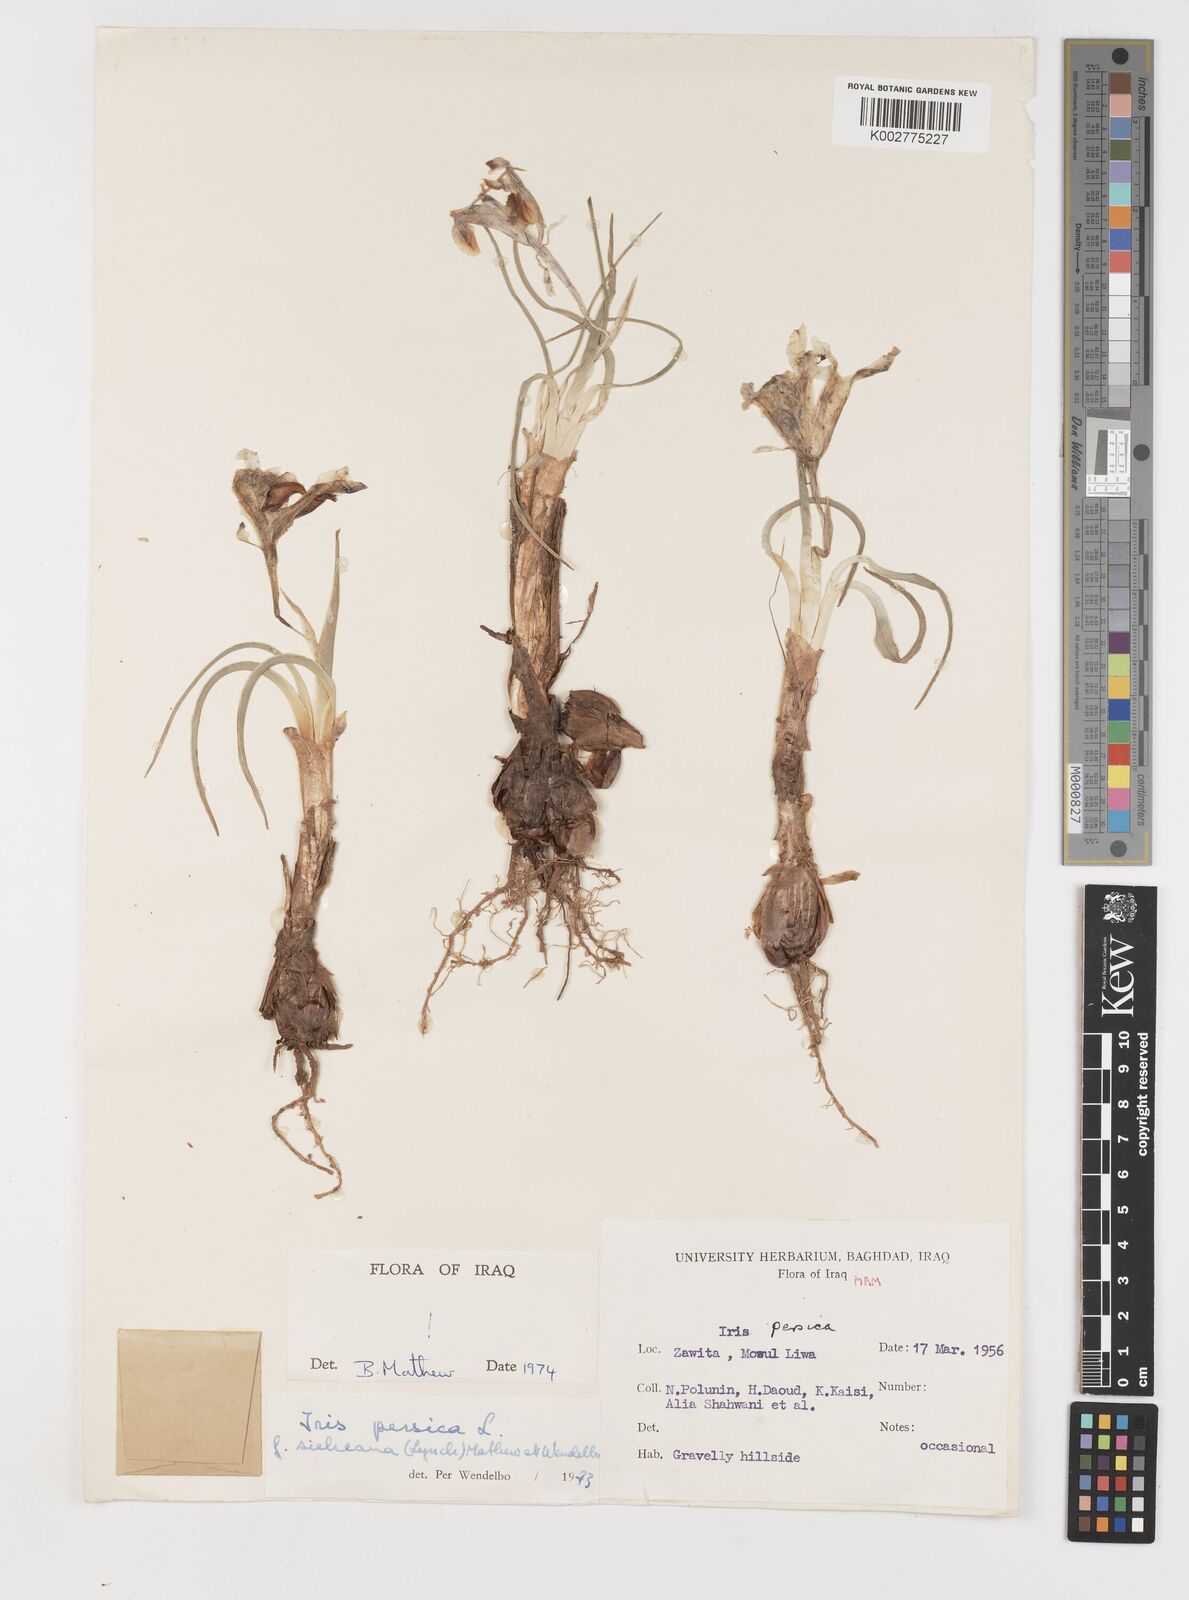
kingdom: Plantae
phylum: Tracheophyta
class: Liliopsida
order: Asparagales
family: Iridaceae
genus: Iris
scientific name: Iris persica
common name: Persian iris
